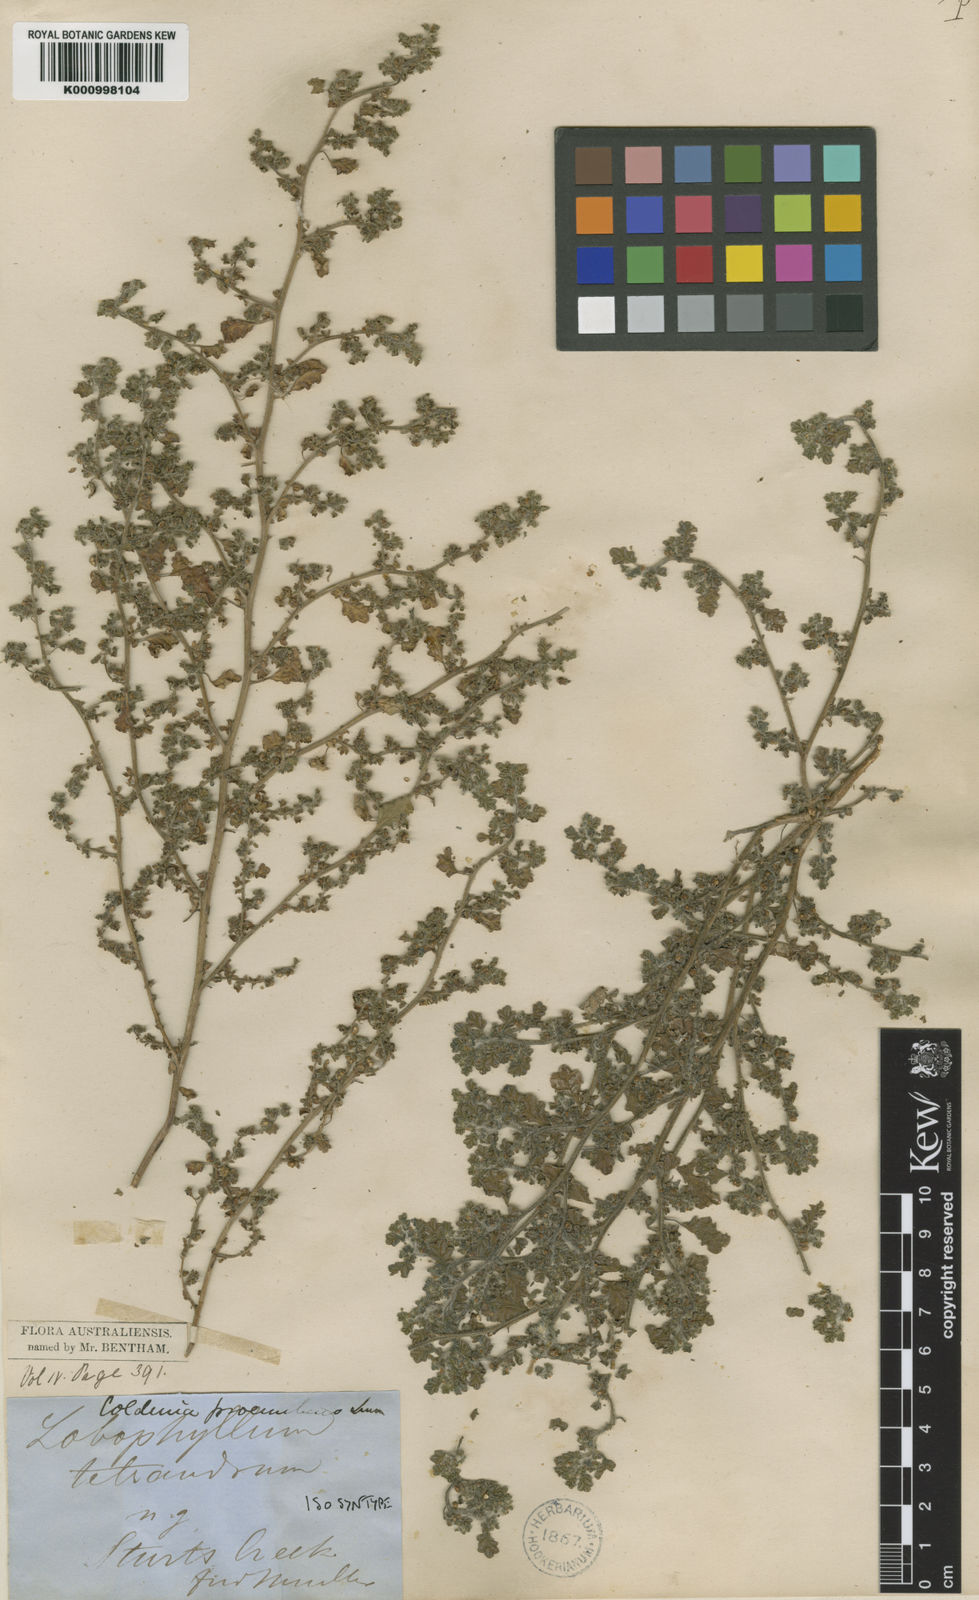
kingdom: Plantae
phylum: Tracheophyta
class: Magnoliopsida
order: Boraginales
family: Coldeniaceae
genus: Coldenia
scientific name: Coldenia procumbens
